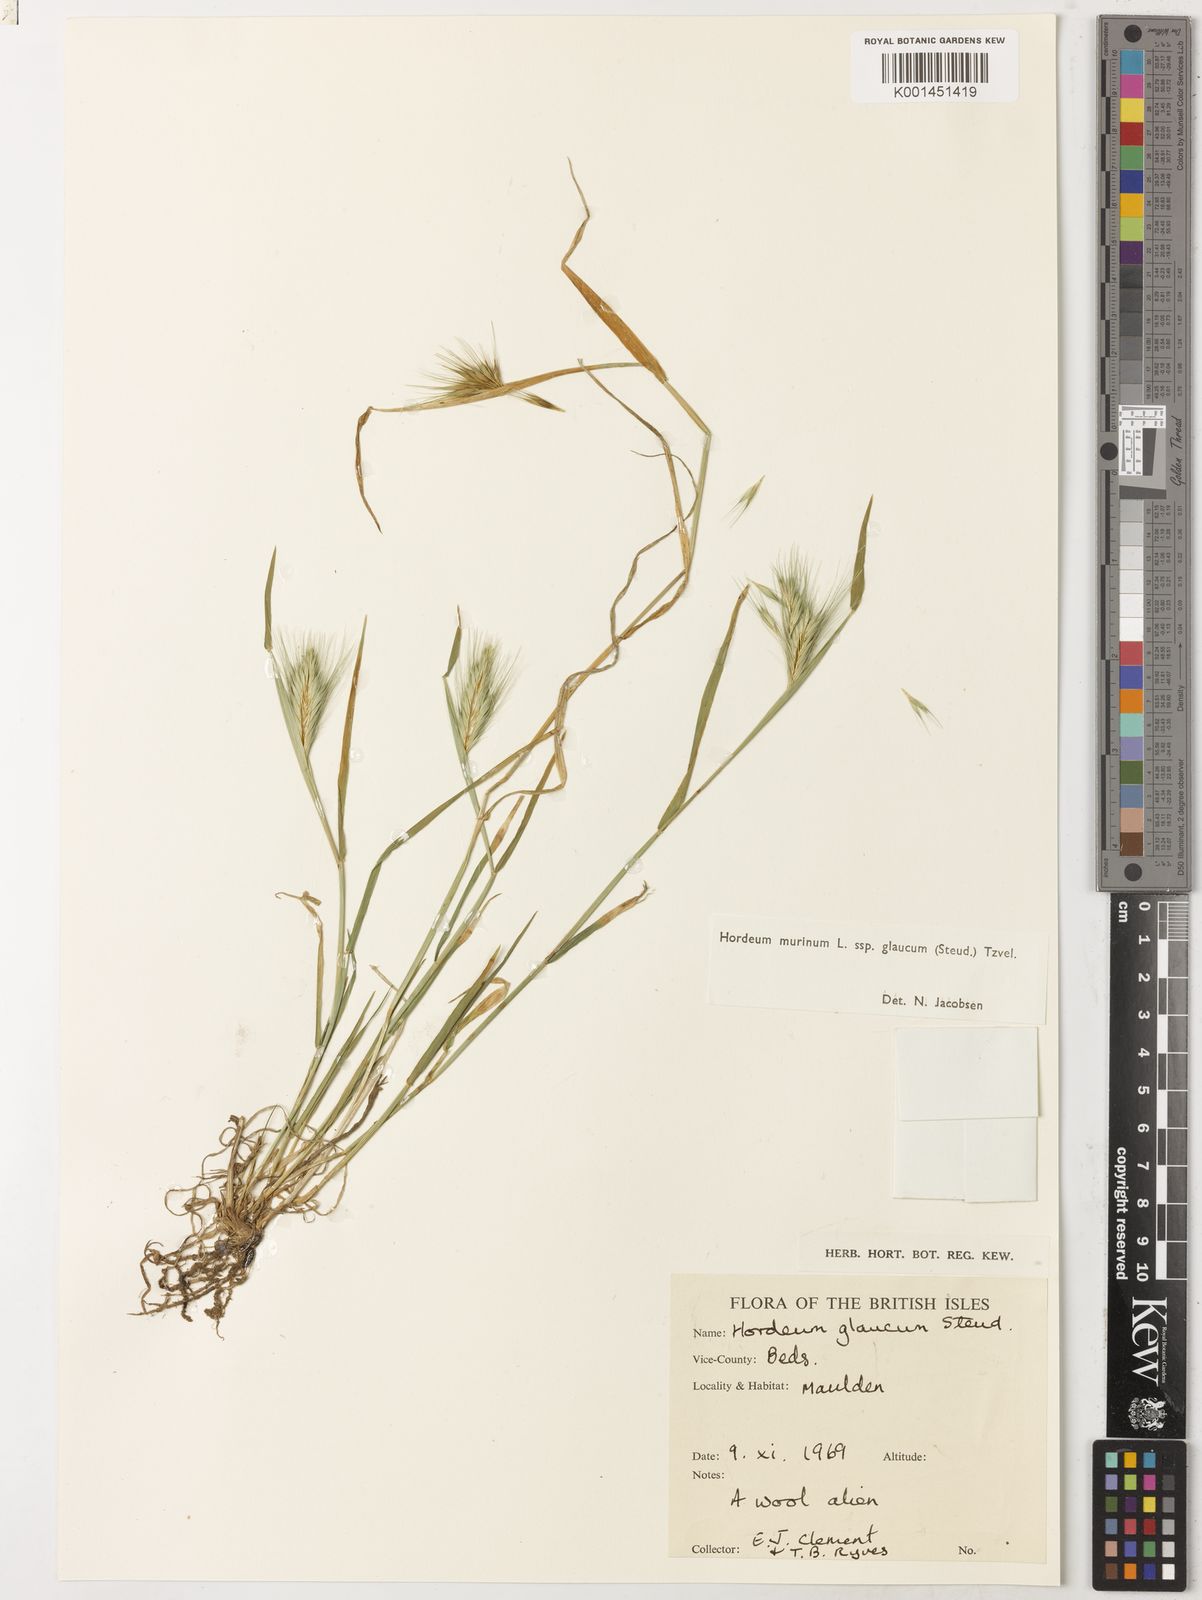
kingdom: Plantae
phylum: Tracheophyta
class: Liliopsida
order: Poales
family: Poaceae
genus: Hordeum
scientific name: Hordeum murinum
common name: Wall barley
